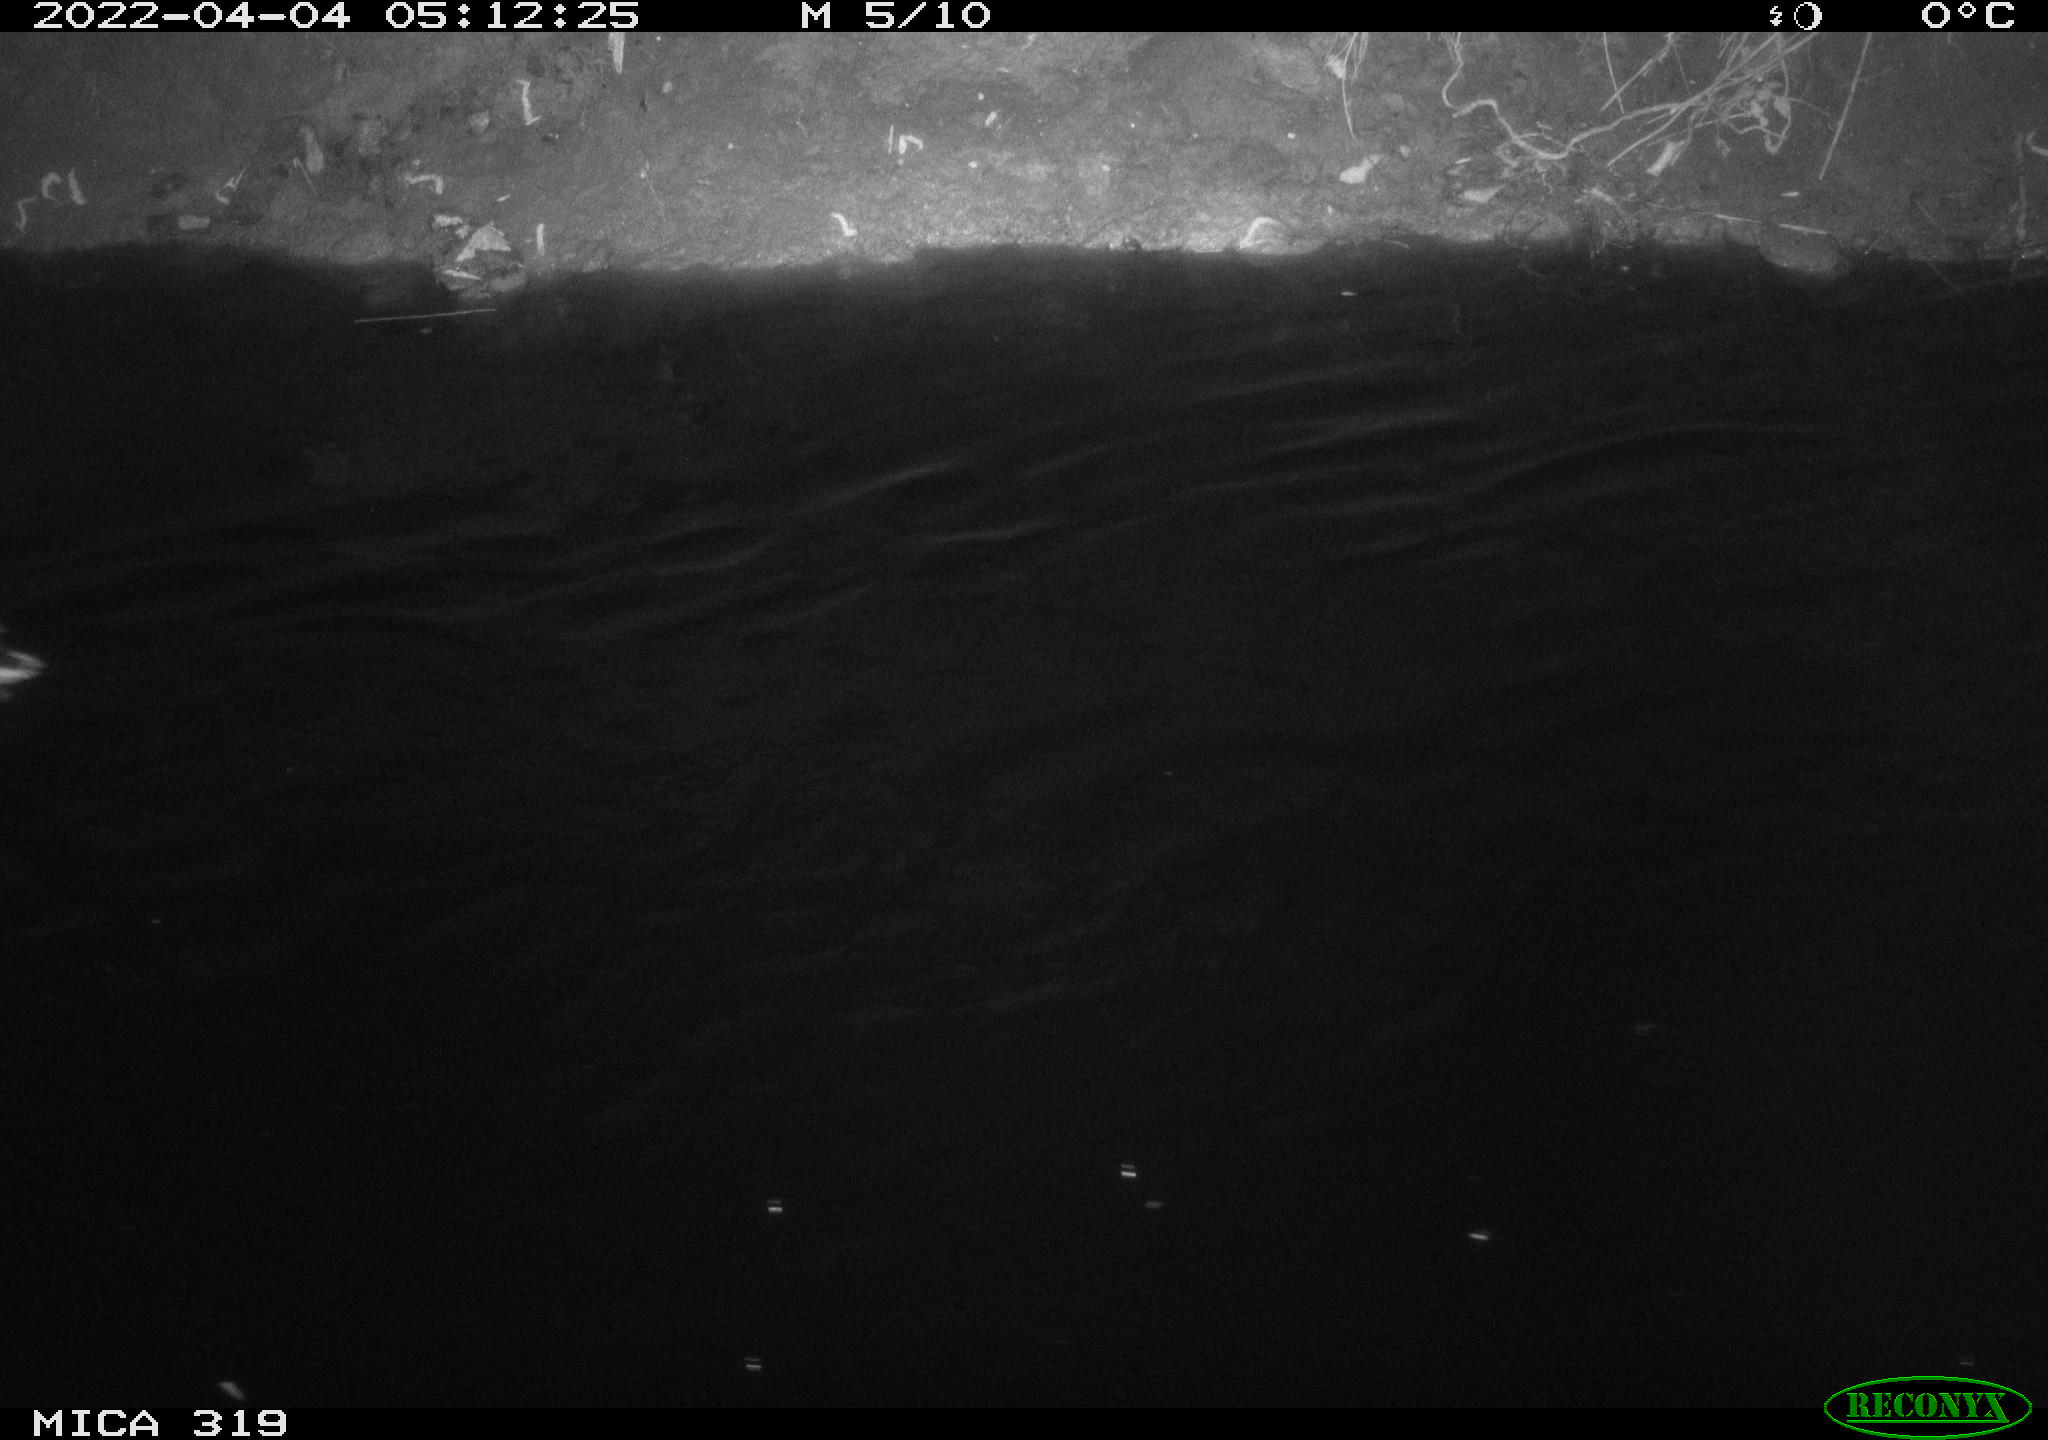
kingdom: Animalia
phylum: Chordata
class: Aves
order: Anseriformes
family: Anatidae
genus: Anas
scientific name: Anas platyrhynchos
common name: Mallard
